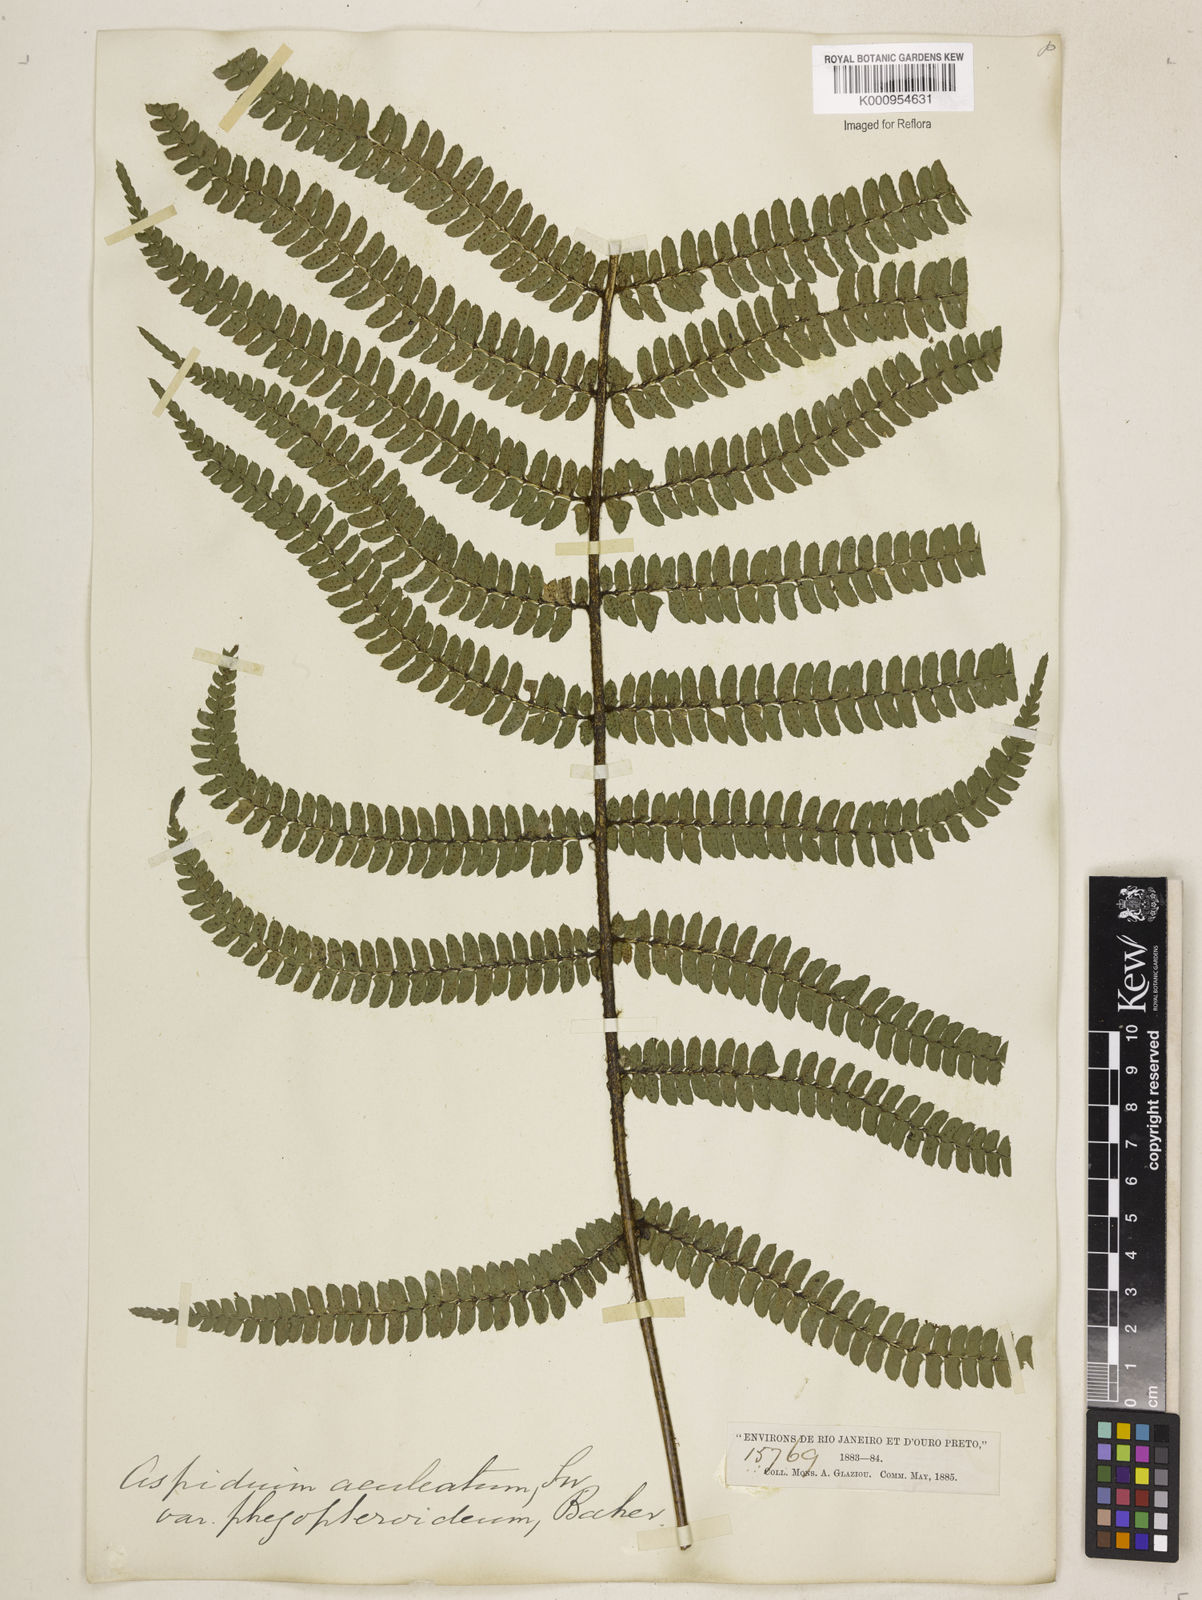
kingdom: Plantae
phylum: Tracheophyta
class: Polypodiopsida
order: Polypodiales
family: Dryopteridaceae
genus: Polystichum
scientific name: Polystichum
